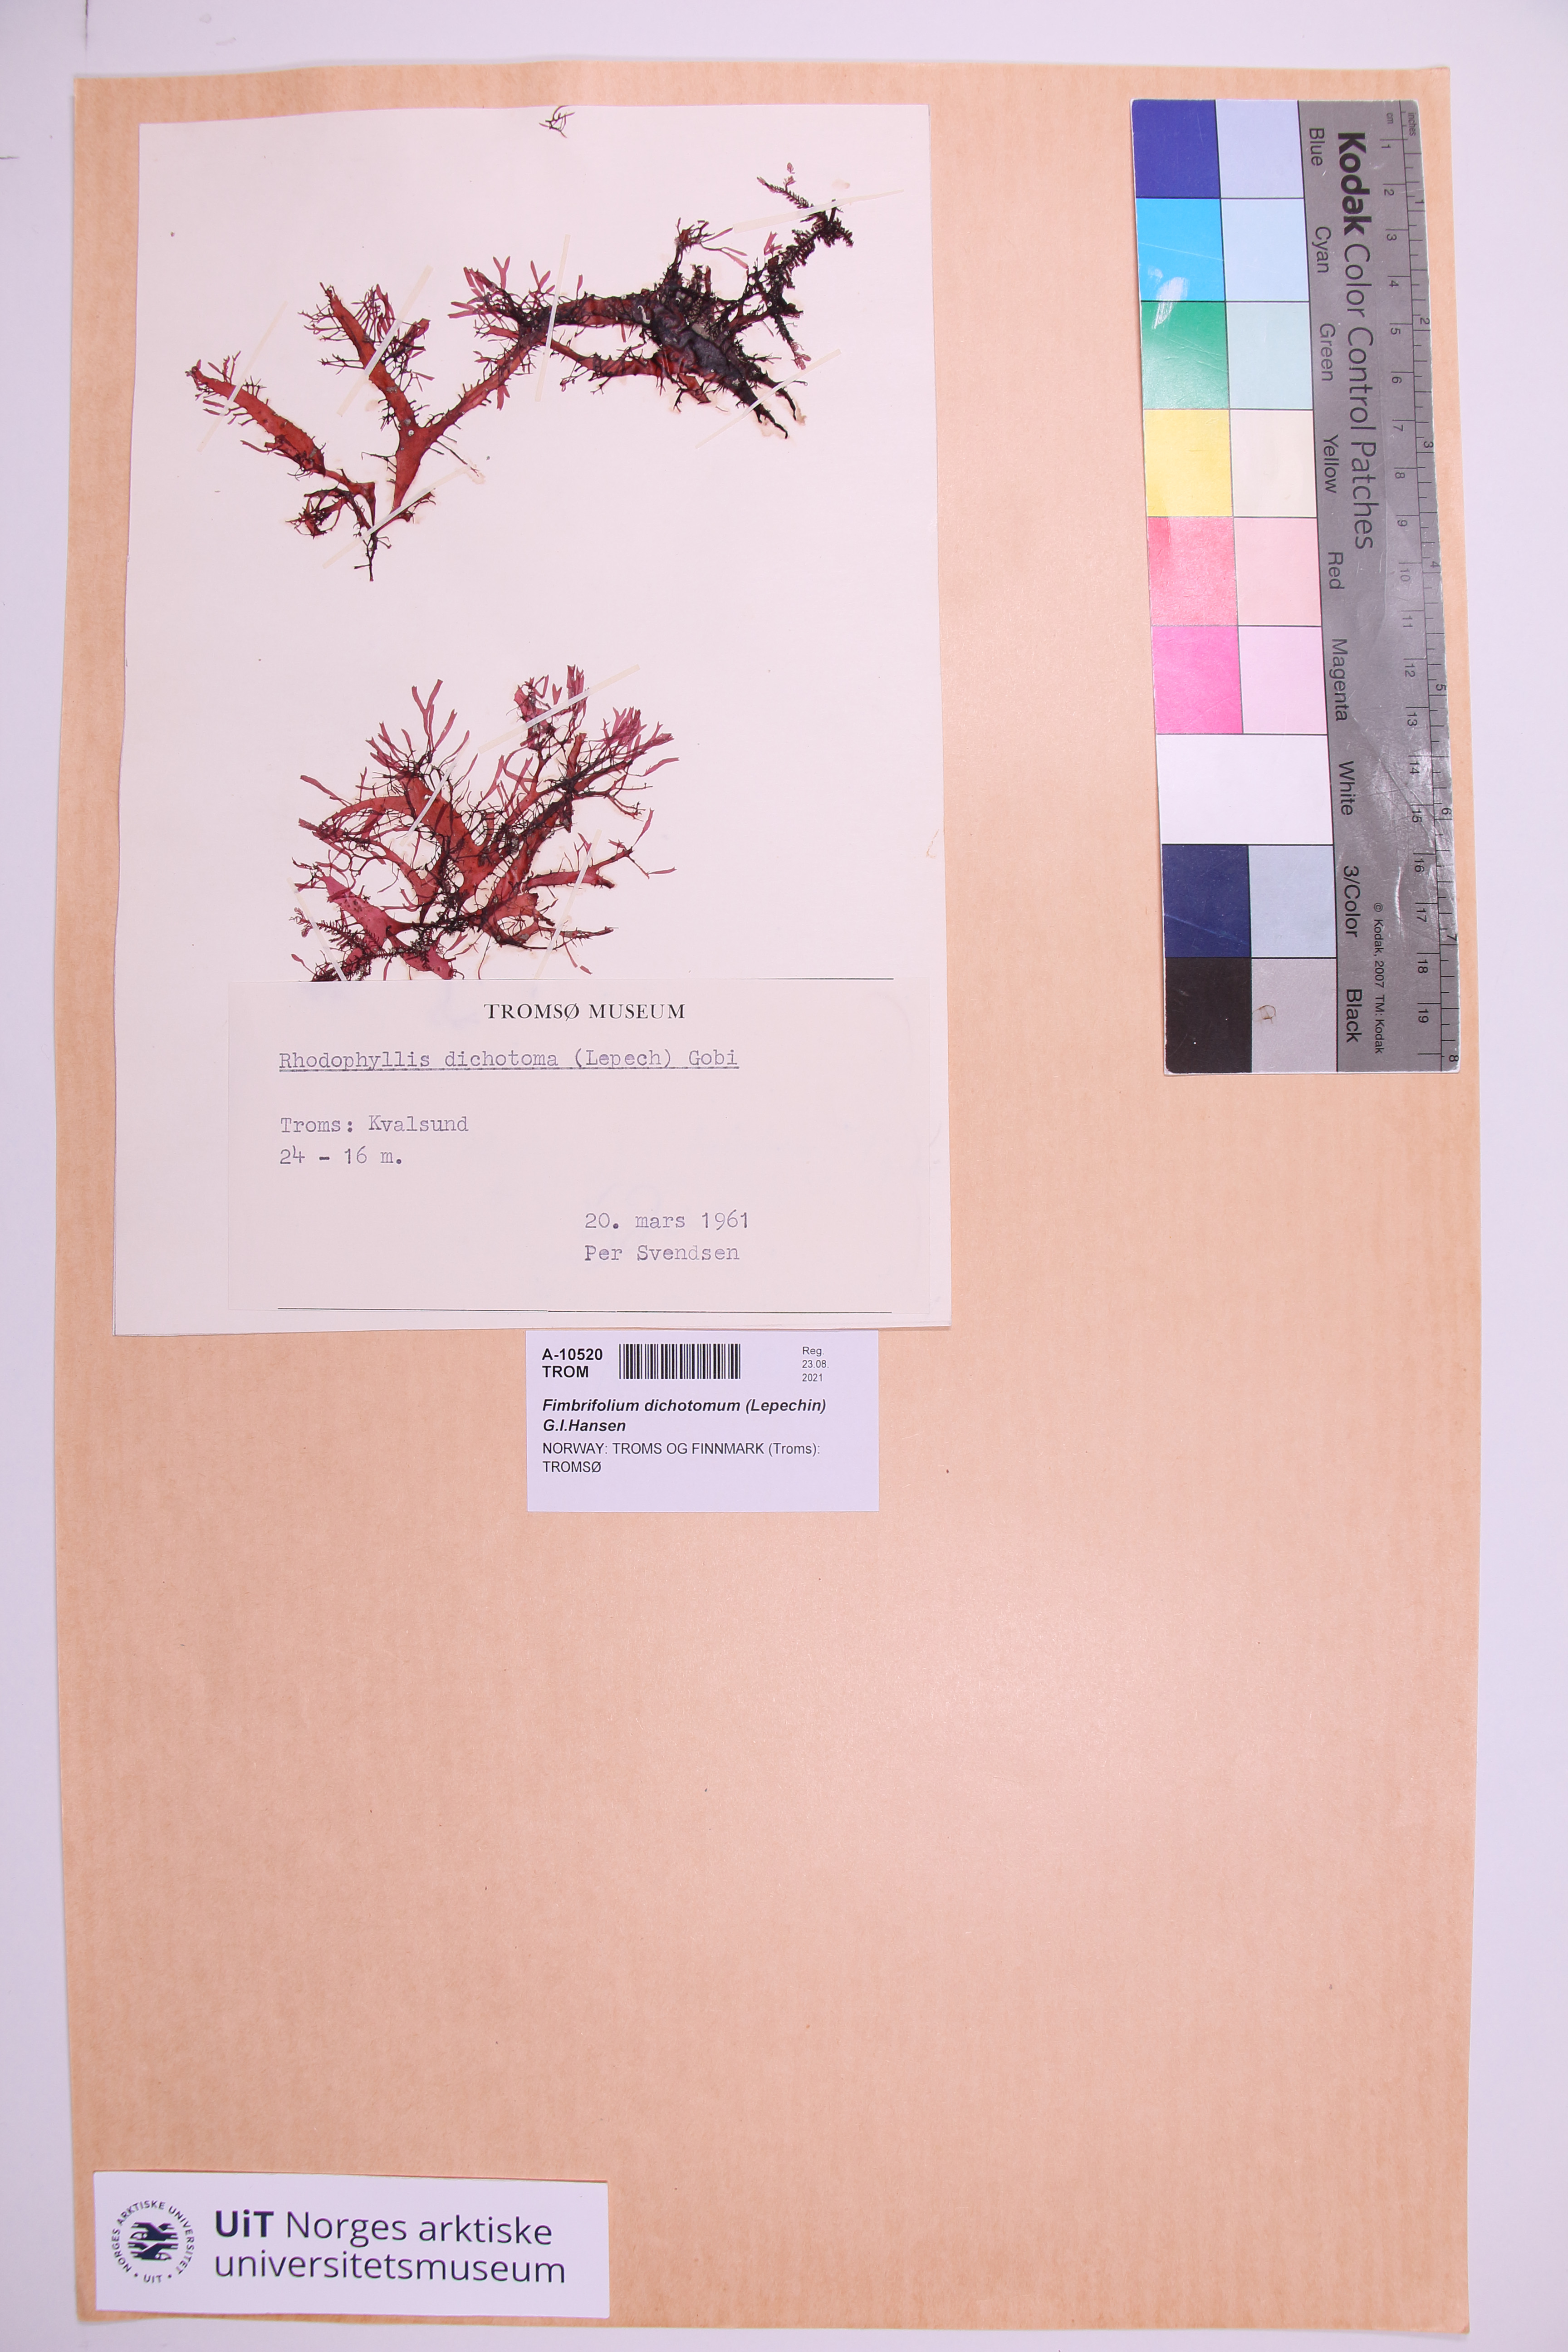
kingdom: Plantae
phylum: Rhodophyta
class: Florideophyceae
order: Gigartinales
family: Cystocloniaceae
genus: Fimbrifolium
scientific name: Fimbrifolium dichotomum
